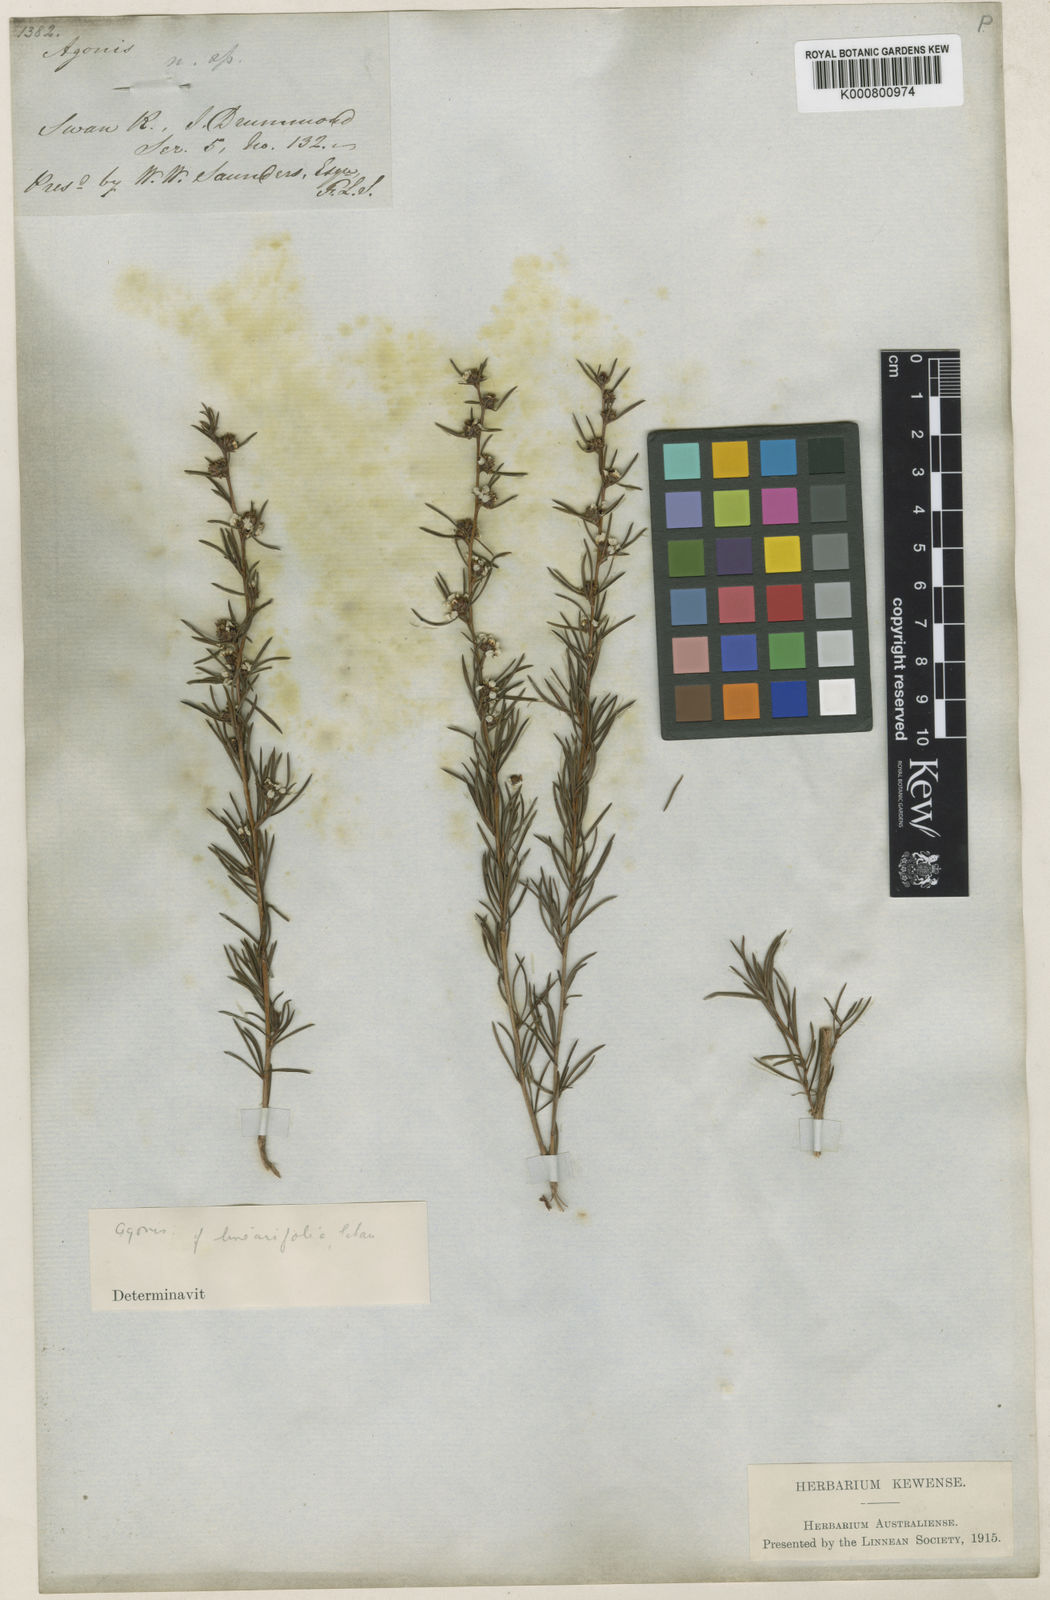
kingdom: Plantae
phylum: Tracheophyta
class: Magnoliopsida
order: Myrtales
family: Myrtaceae
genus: Leptospermum
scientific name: Leptospermum whitei
